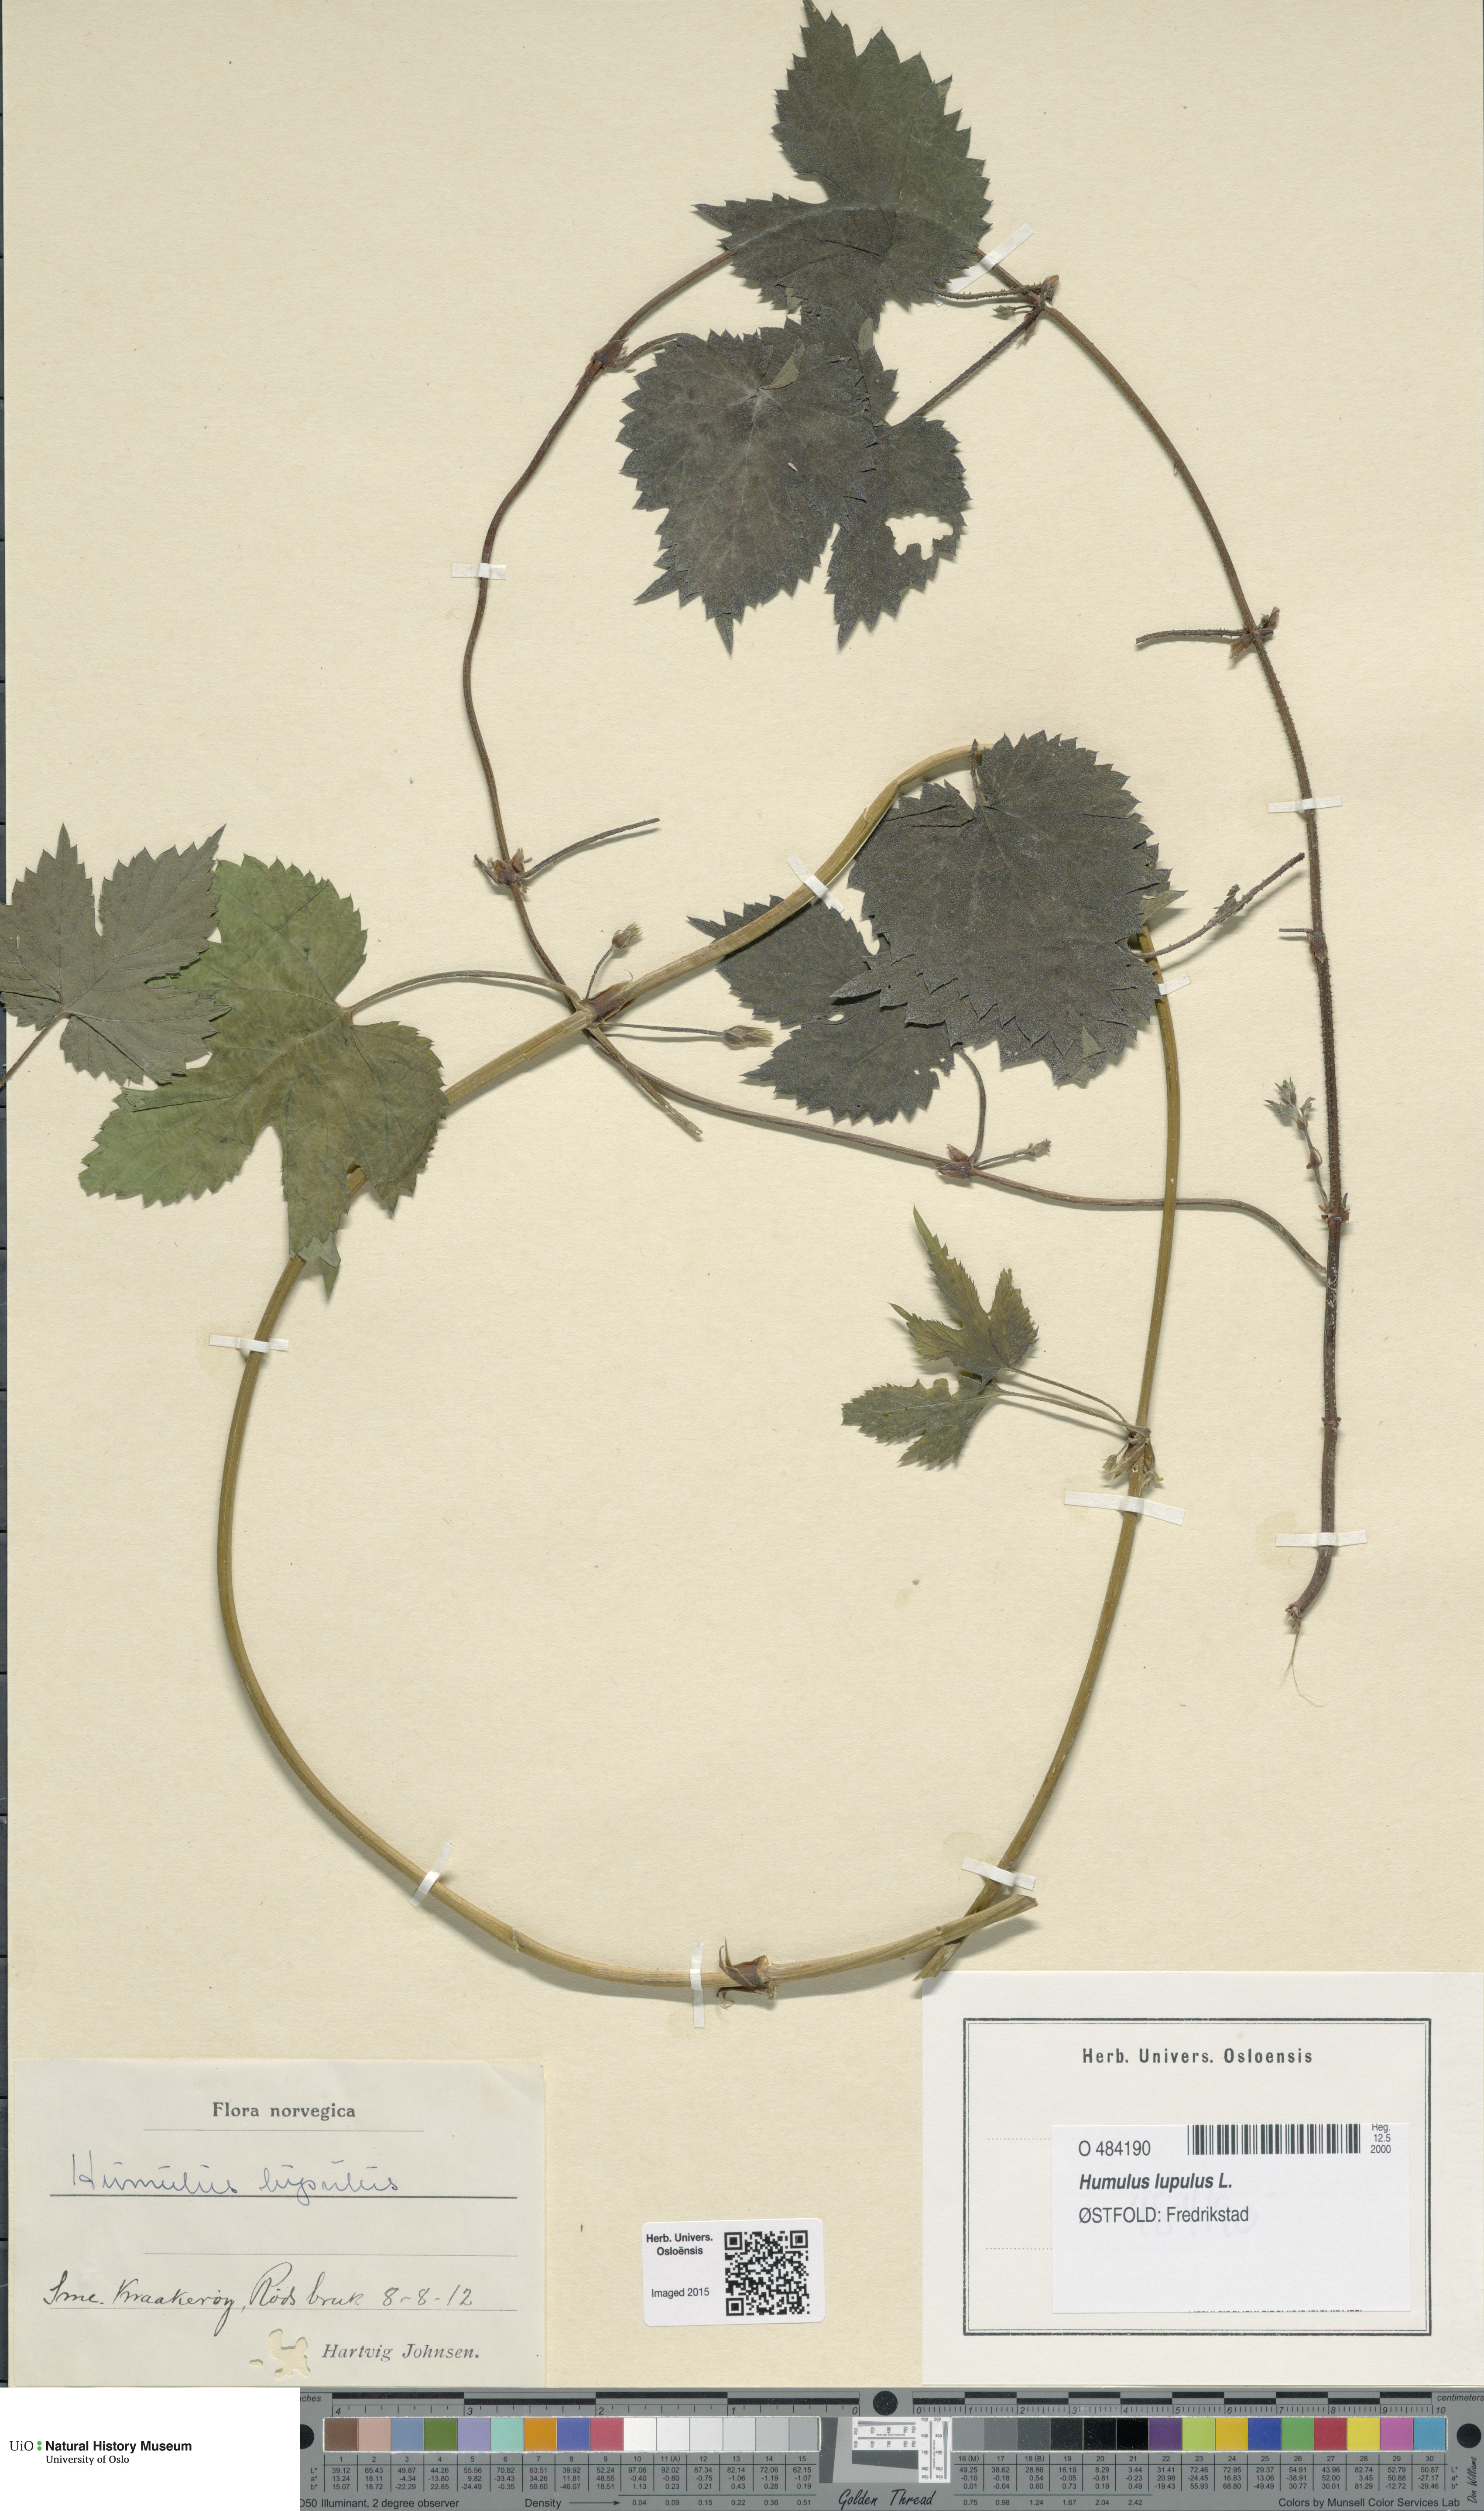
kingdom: Plantae
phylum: Tracheophyta
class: Magnoliopsida
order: Rosales
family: Cannabaceae
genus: Humulus
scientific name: Humulus lupulus
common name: Hop
